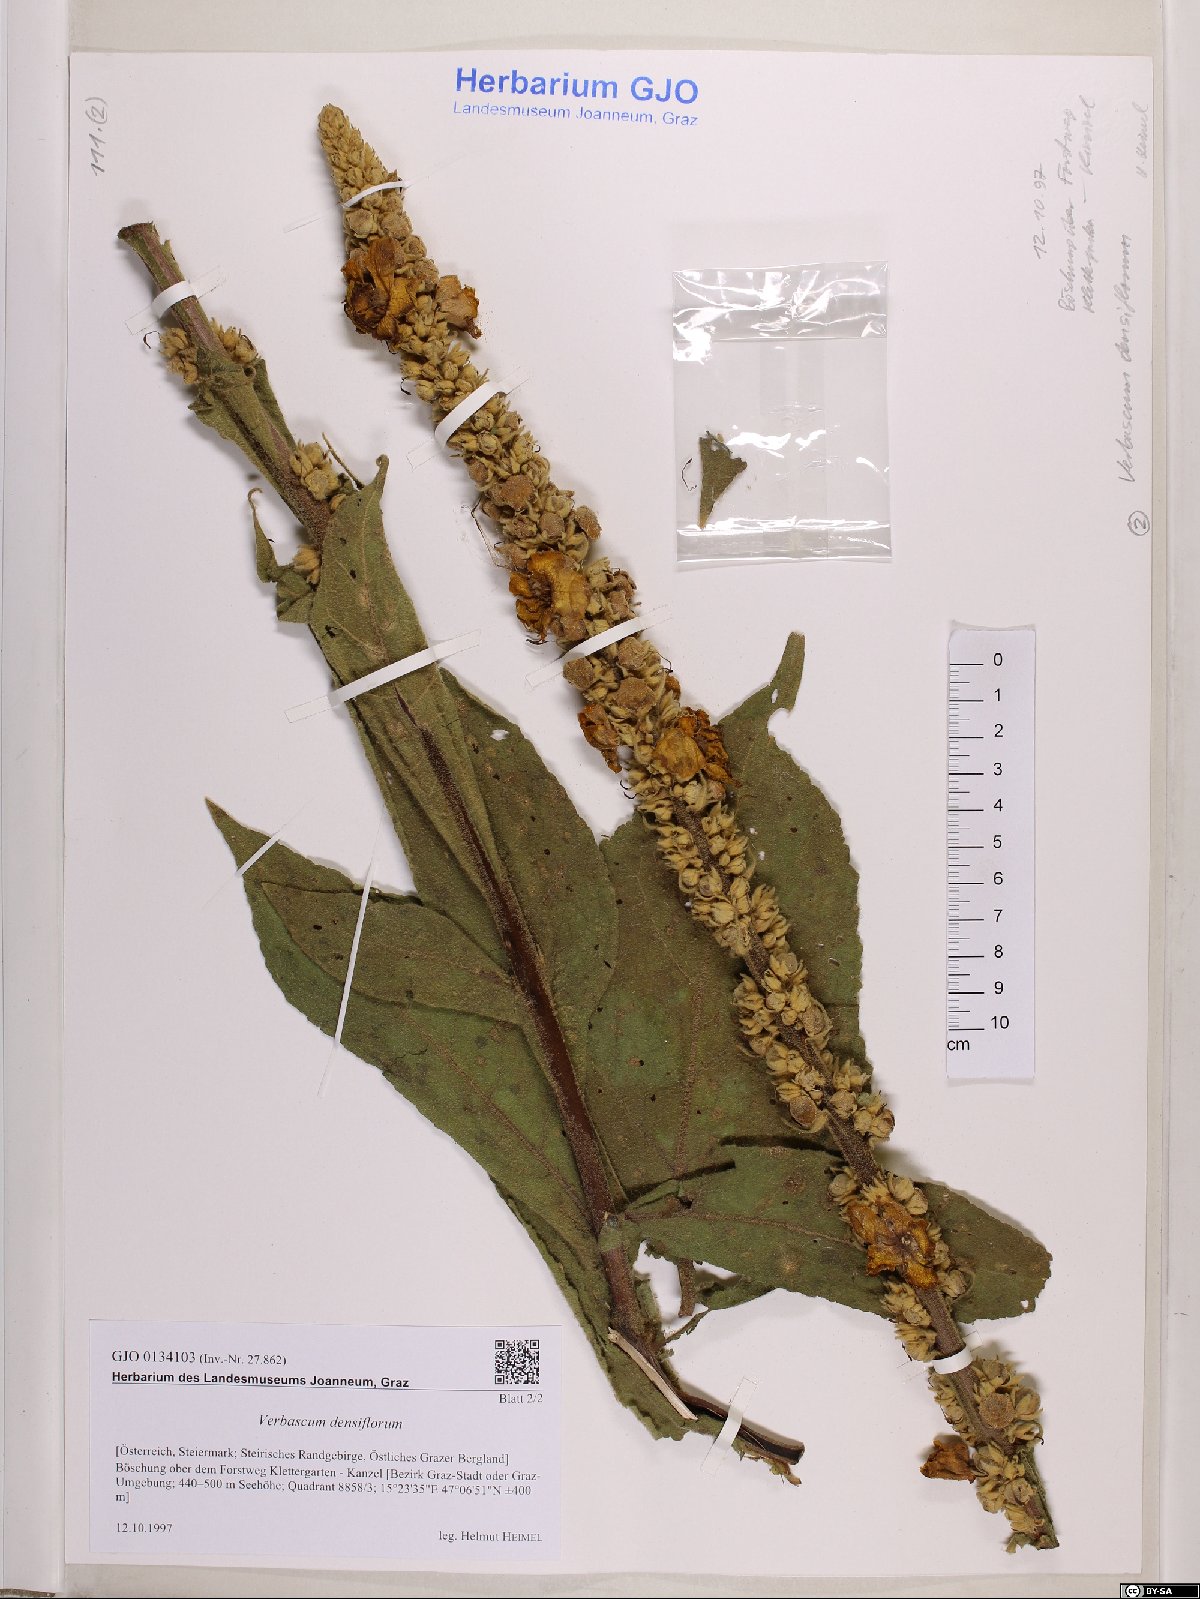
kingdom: Plantae
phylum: Tracheophyta
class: Magnoliopsida
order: Lamiales
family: Scrophulariaceae
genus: Verbascum
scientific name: Verbascum densiflorum
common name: Dense-flowered mullein
